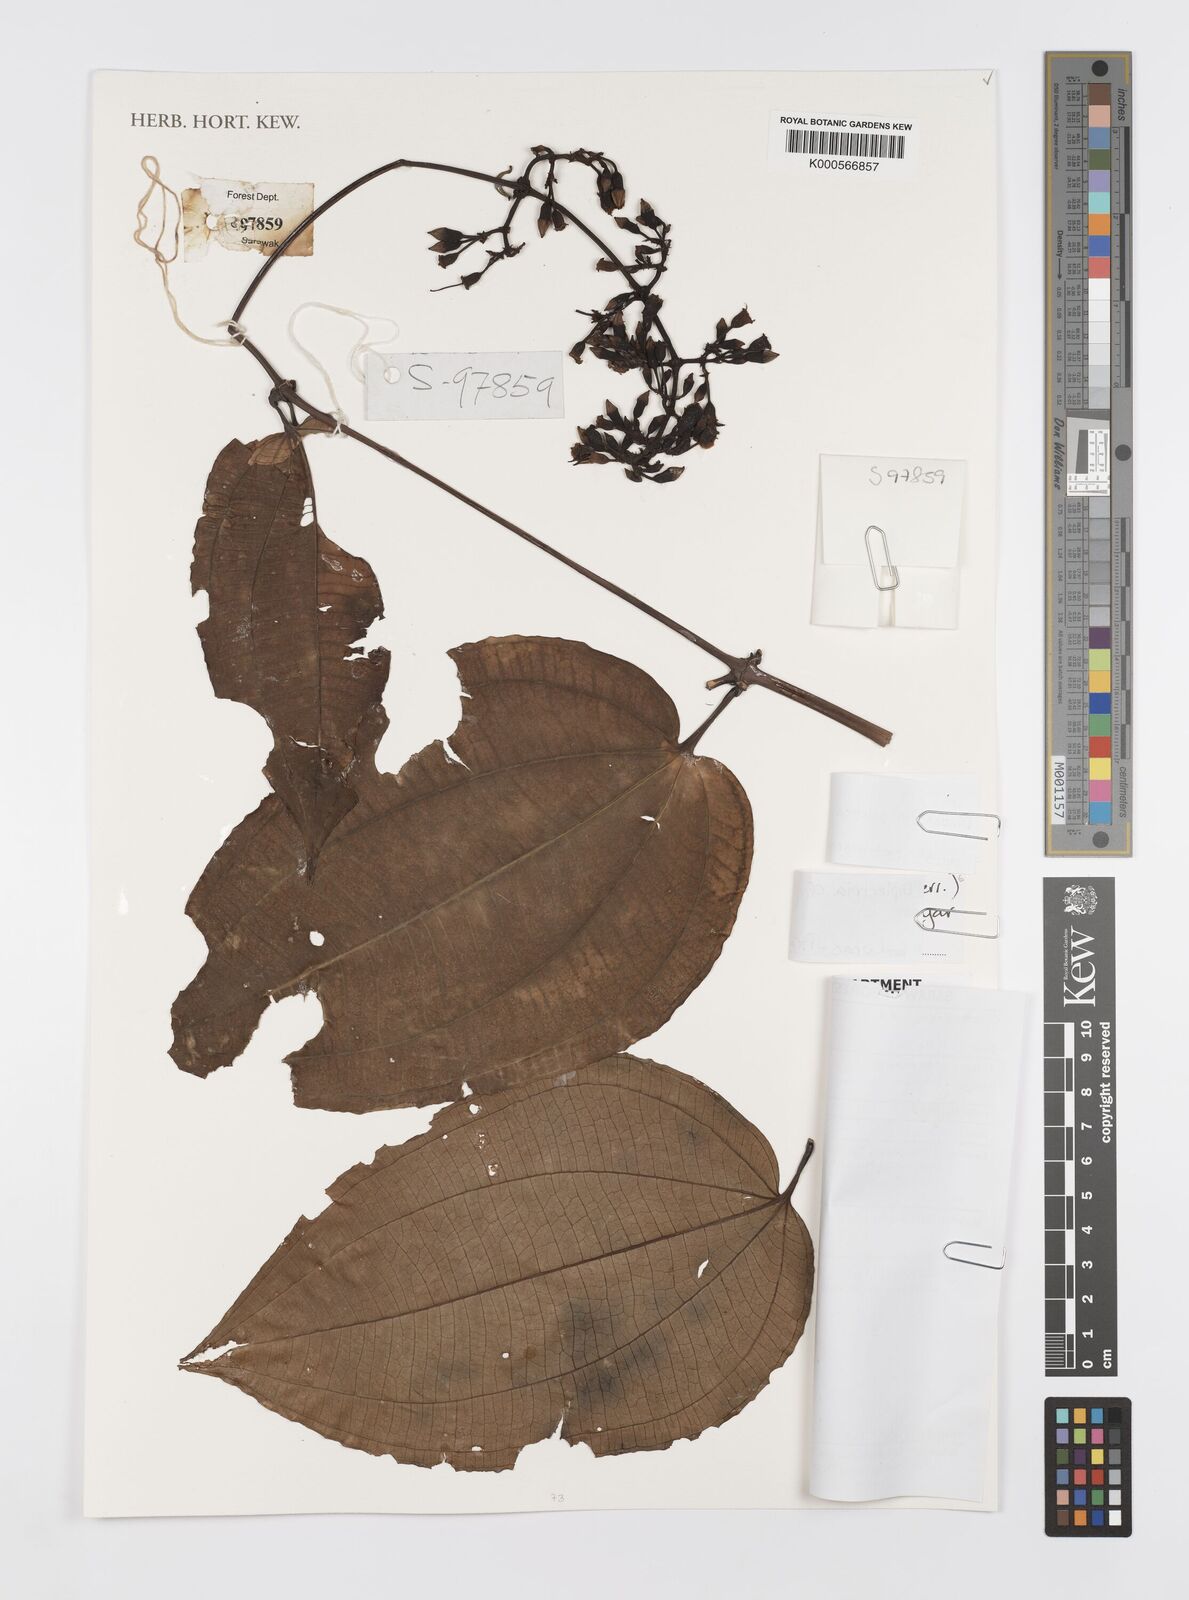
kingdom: Plantae
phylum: Tracheophyta
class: Magnoliopsida
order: Myrtales
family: Melastomataceae
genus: Dalenia
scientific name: Dalenia pulchra
